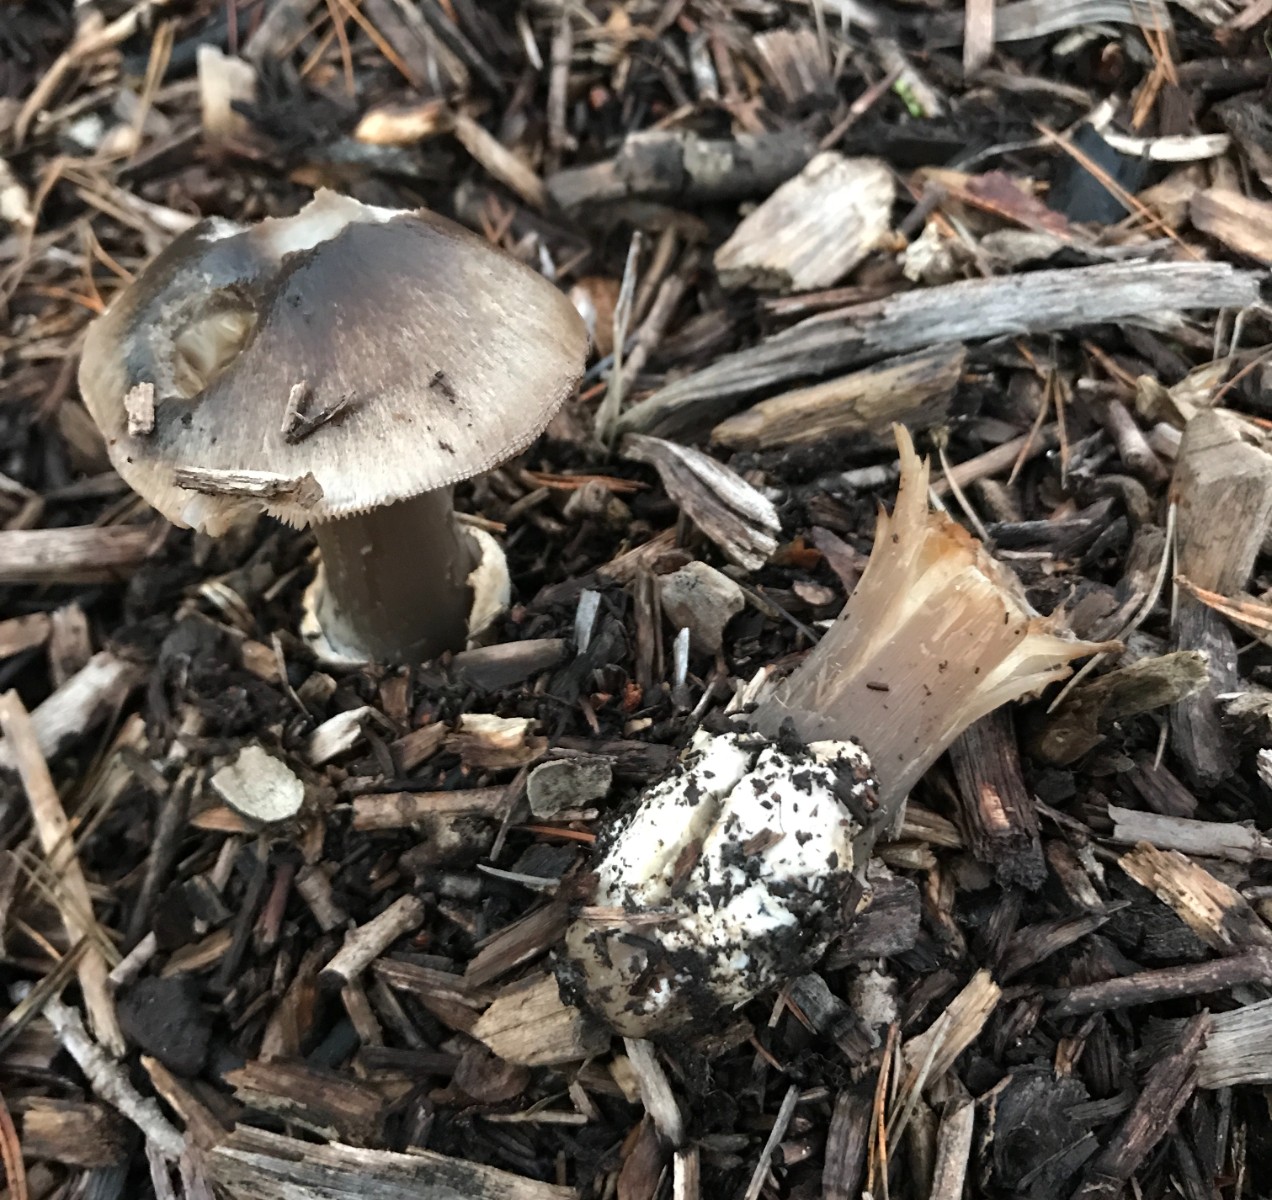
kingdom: Fungi
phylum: Basidiomycota
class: Agaricomycetes
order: Agaricales
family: Pluteaceae
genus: Volvopluteus
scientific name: Volvopluteus gloiocephalus
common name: høj posesvamp
